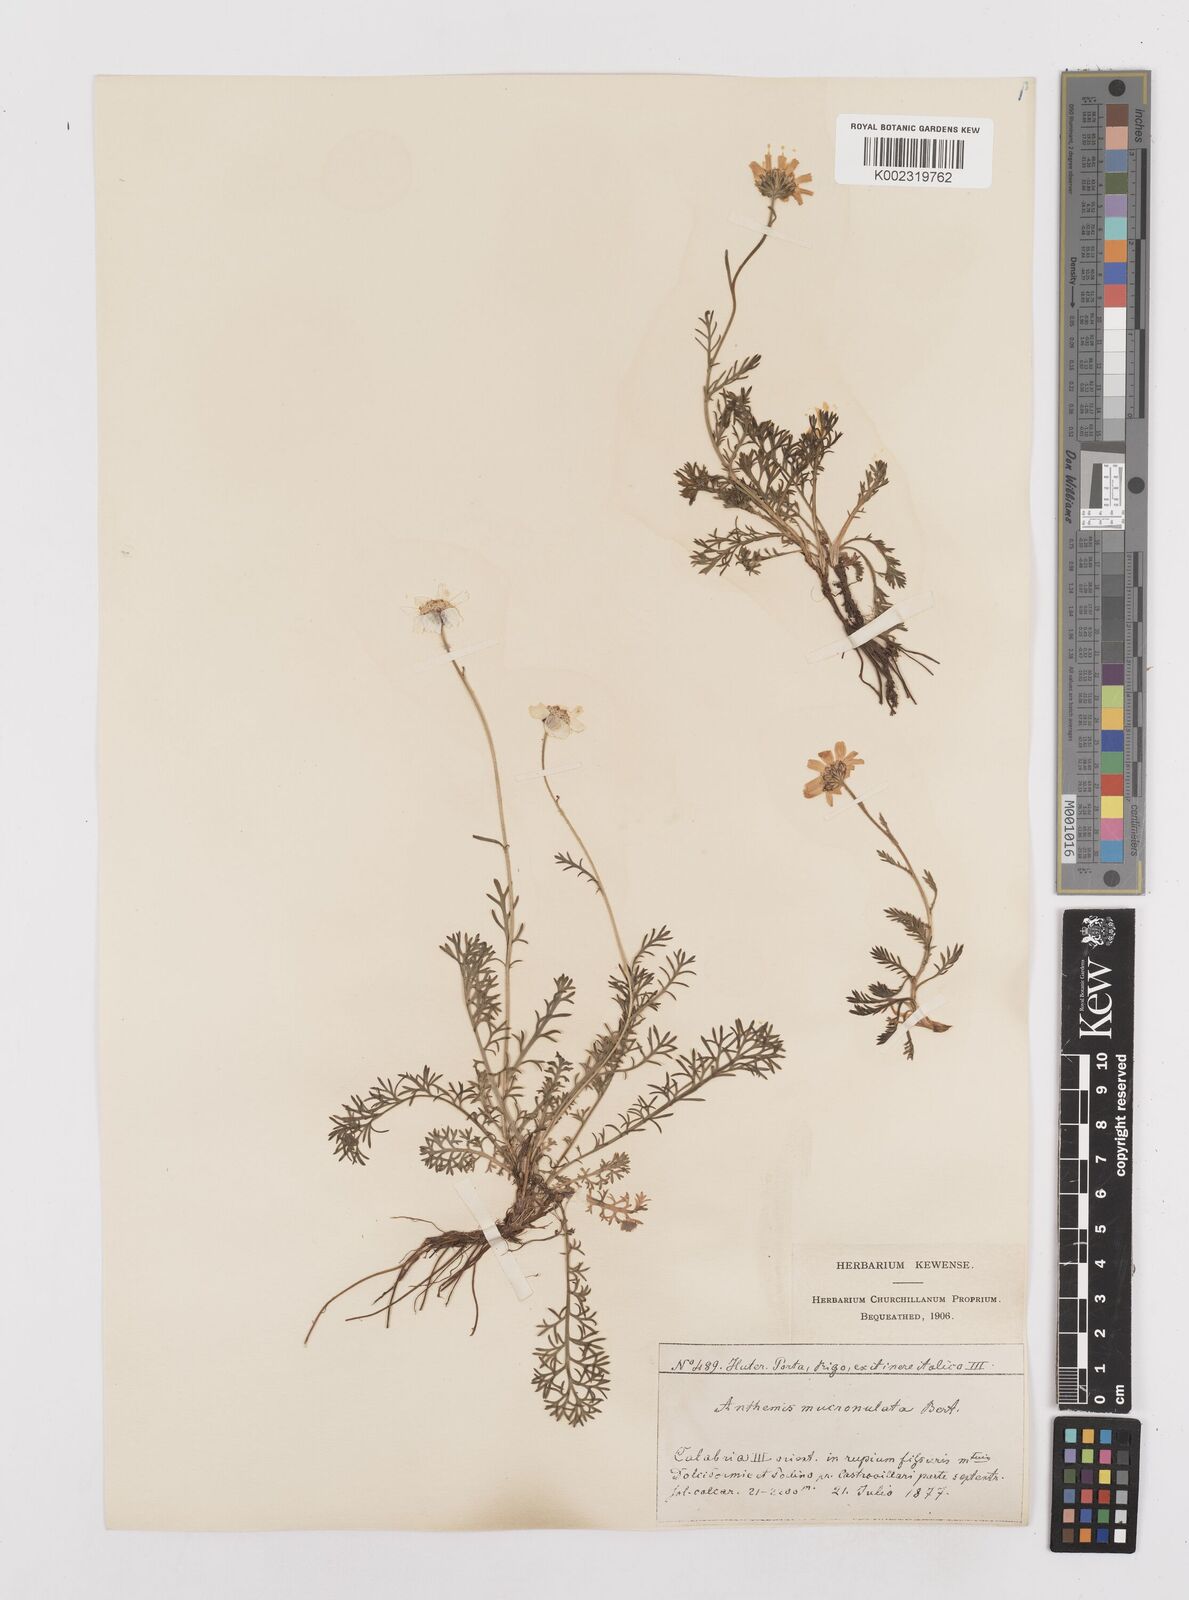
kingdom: Plantae
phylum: Tracheophyta
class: Magnoliopsida
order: Asterales
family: Asteraceae
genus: Achillea
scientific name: Achillea barrelieri
